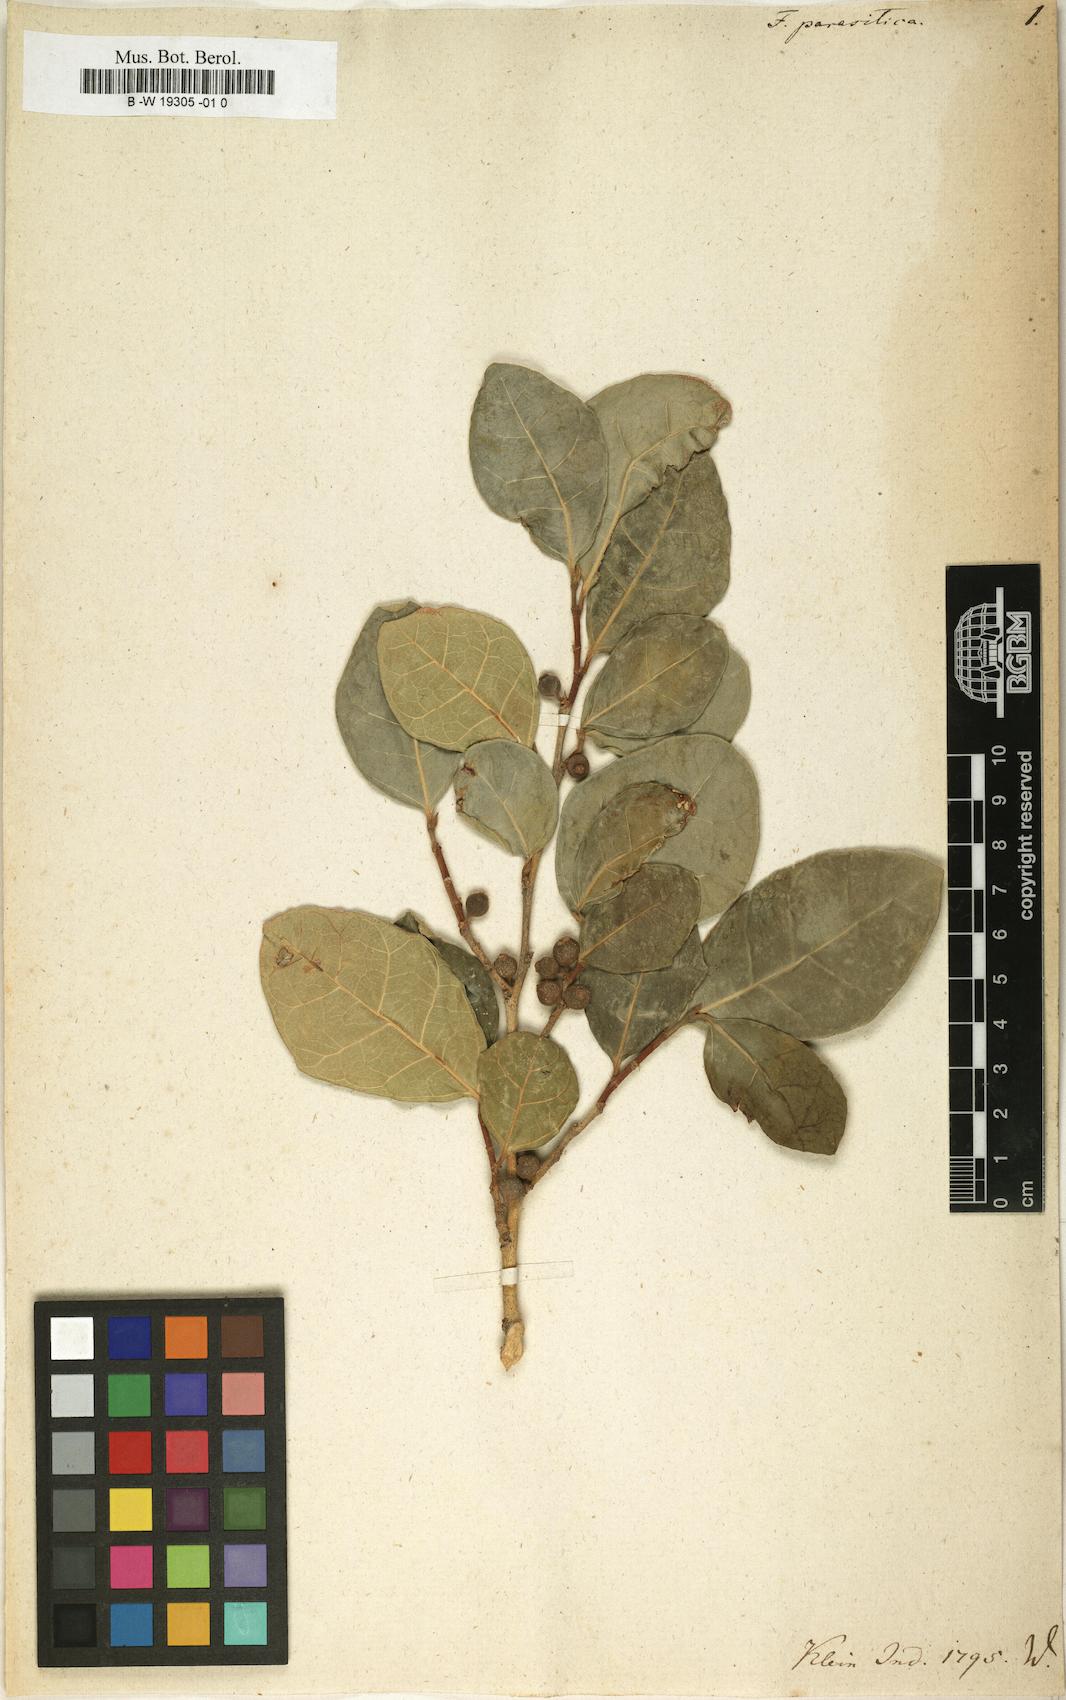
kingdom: Plantae
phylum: Tracheophyta
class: Magnoliopsida
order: Rosales
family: Moraceae
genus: Ficus
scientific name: Ficus tinctoria
